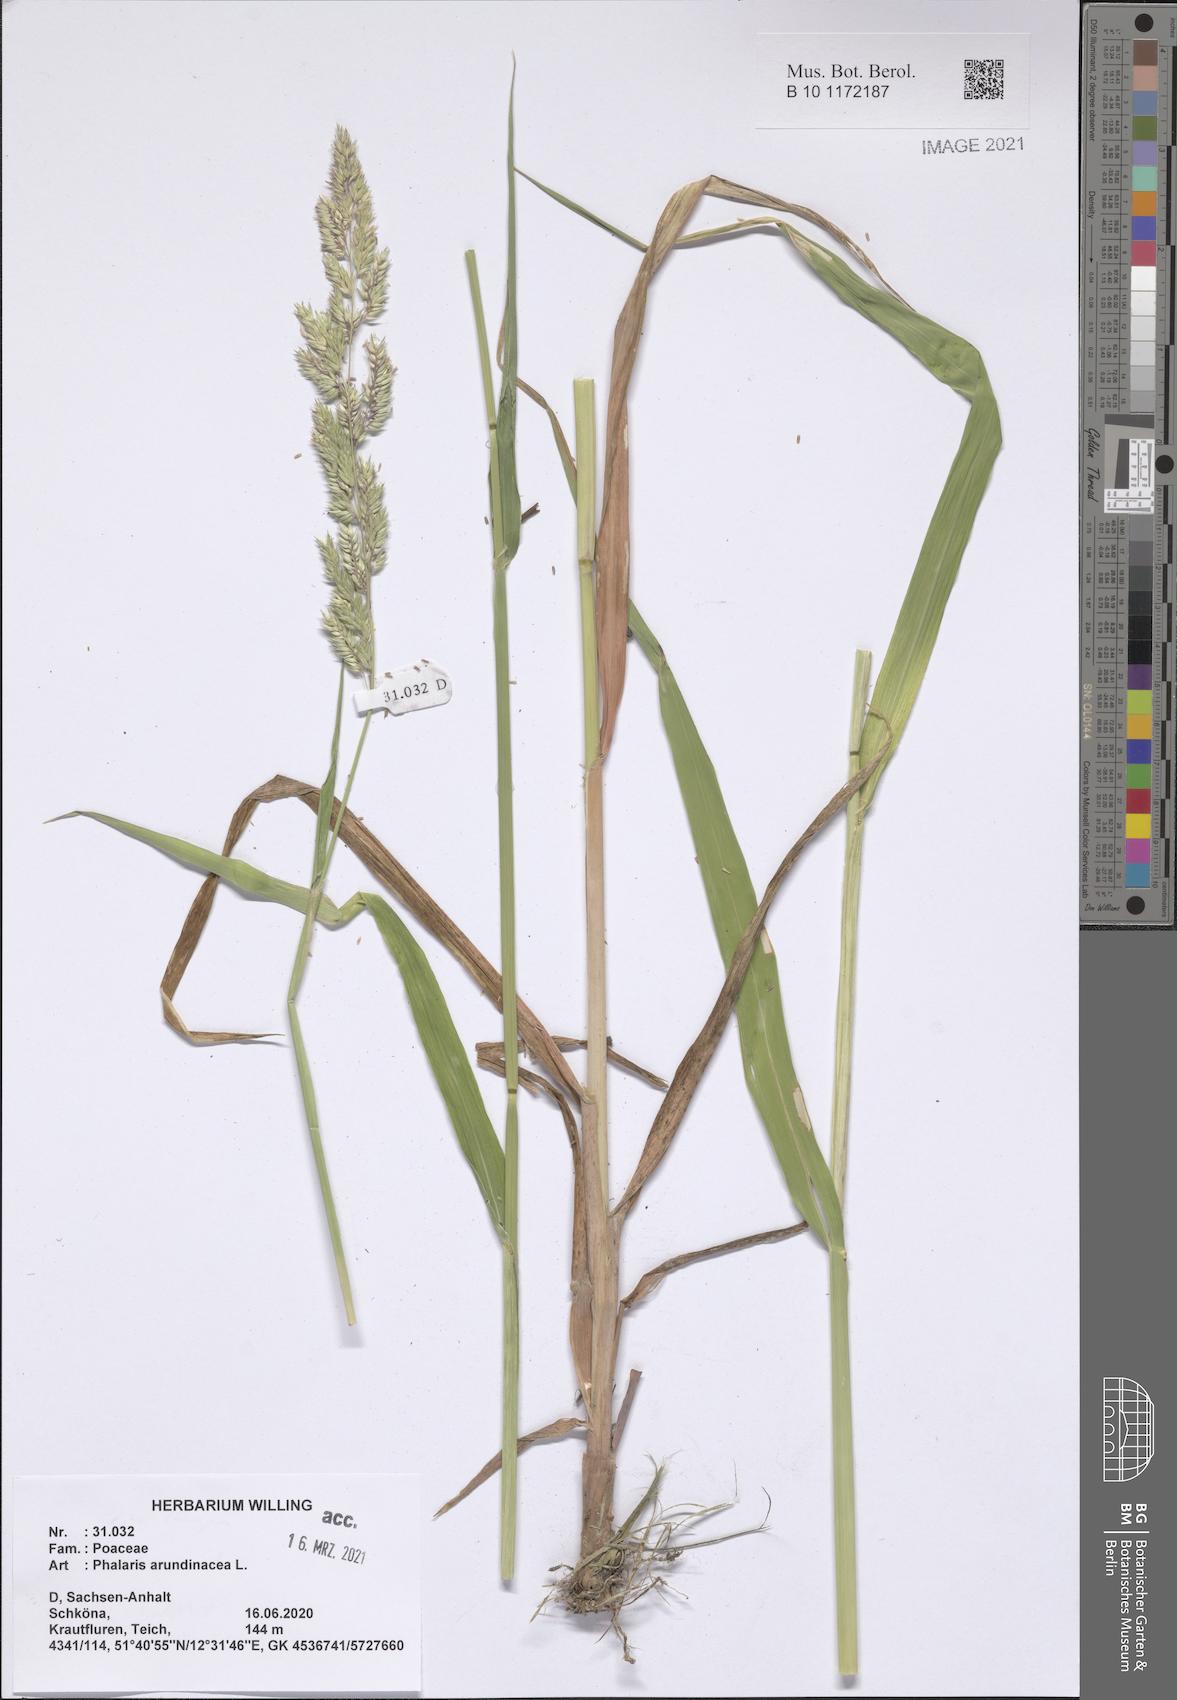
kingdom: Plantae
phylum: Tracheophyta
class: Liliopsida
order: Poales
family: Poaceae
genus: Phalaris
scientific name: Phalaris arundinacea
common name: Reed canary-grass
